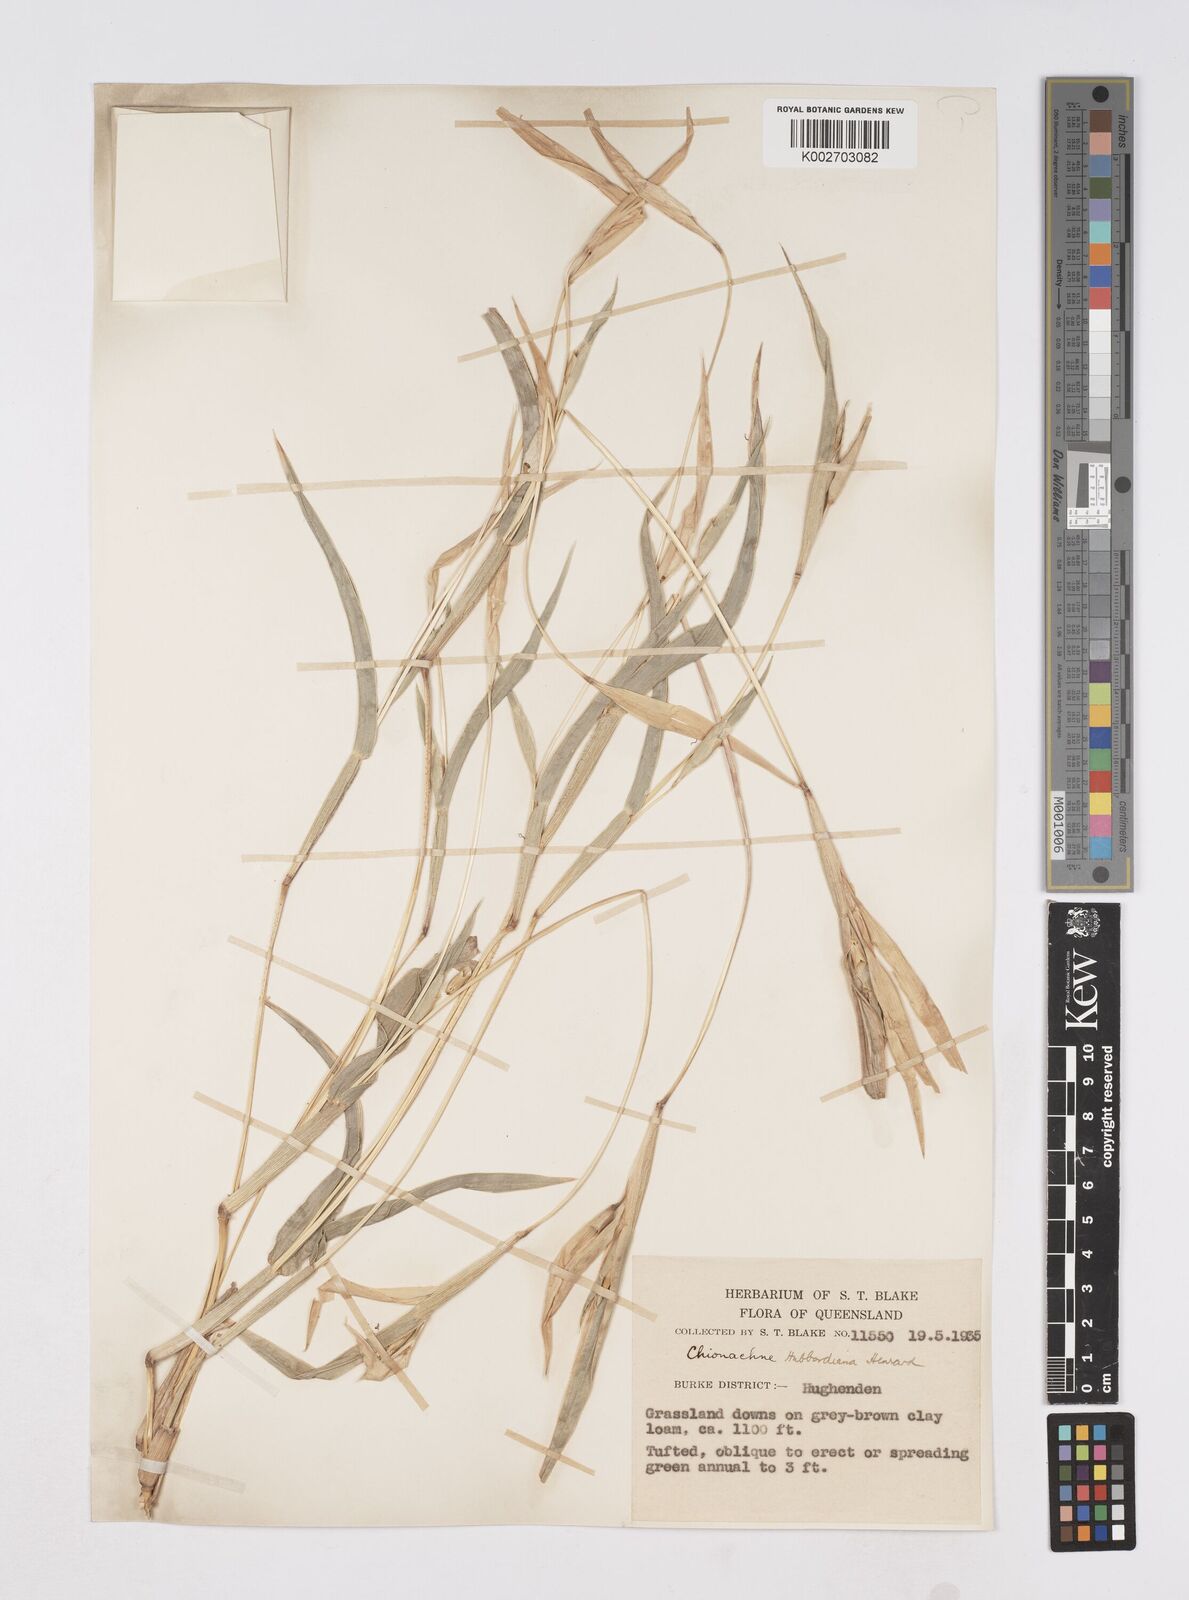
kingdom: Plantae
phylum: Tracheophyta
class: Liliopsida
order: Poales
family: Poaceae
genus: Polytoca
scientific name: Polytoca hubbardiana
